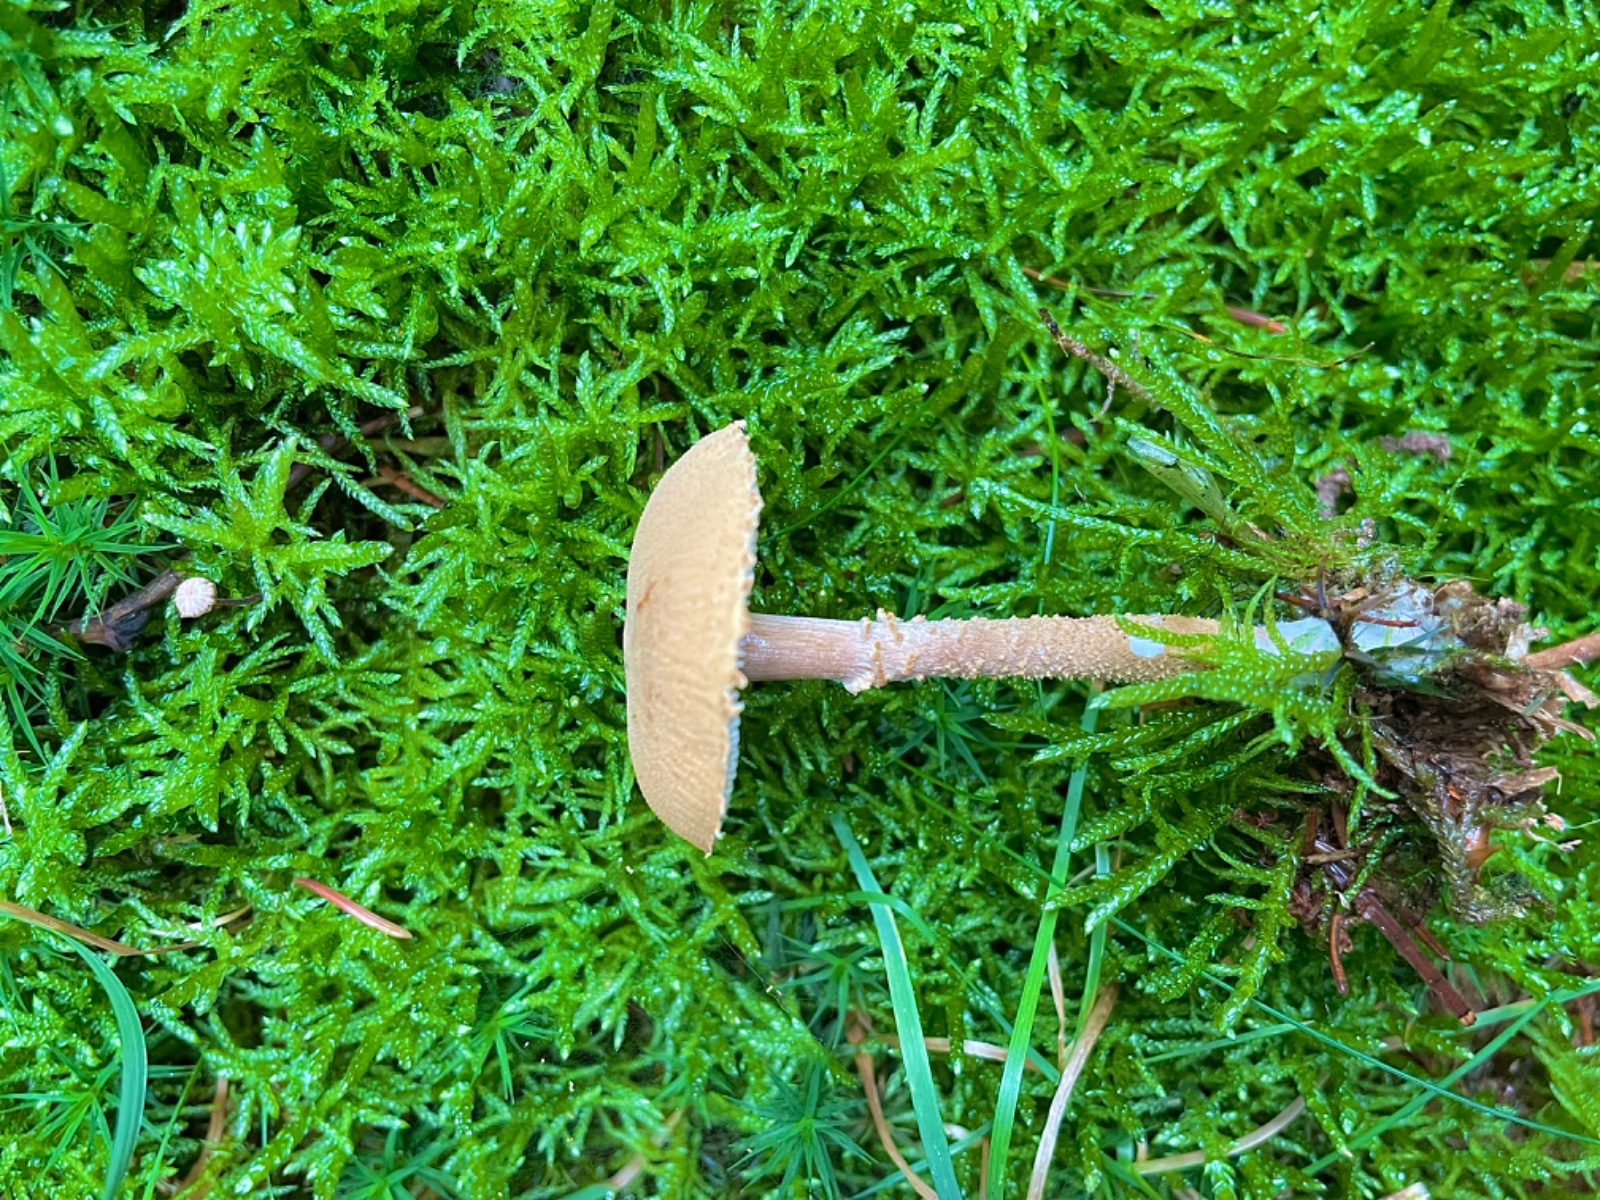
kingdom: Fungi
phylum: Basidiomycota
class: Agaricomycetes
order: Agaricales
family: Tricholomataceae
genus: Cystoderma
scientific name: Cystoderma amianthinum
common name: okkergul grynhat
